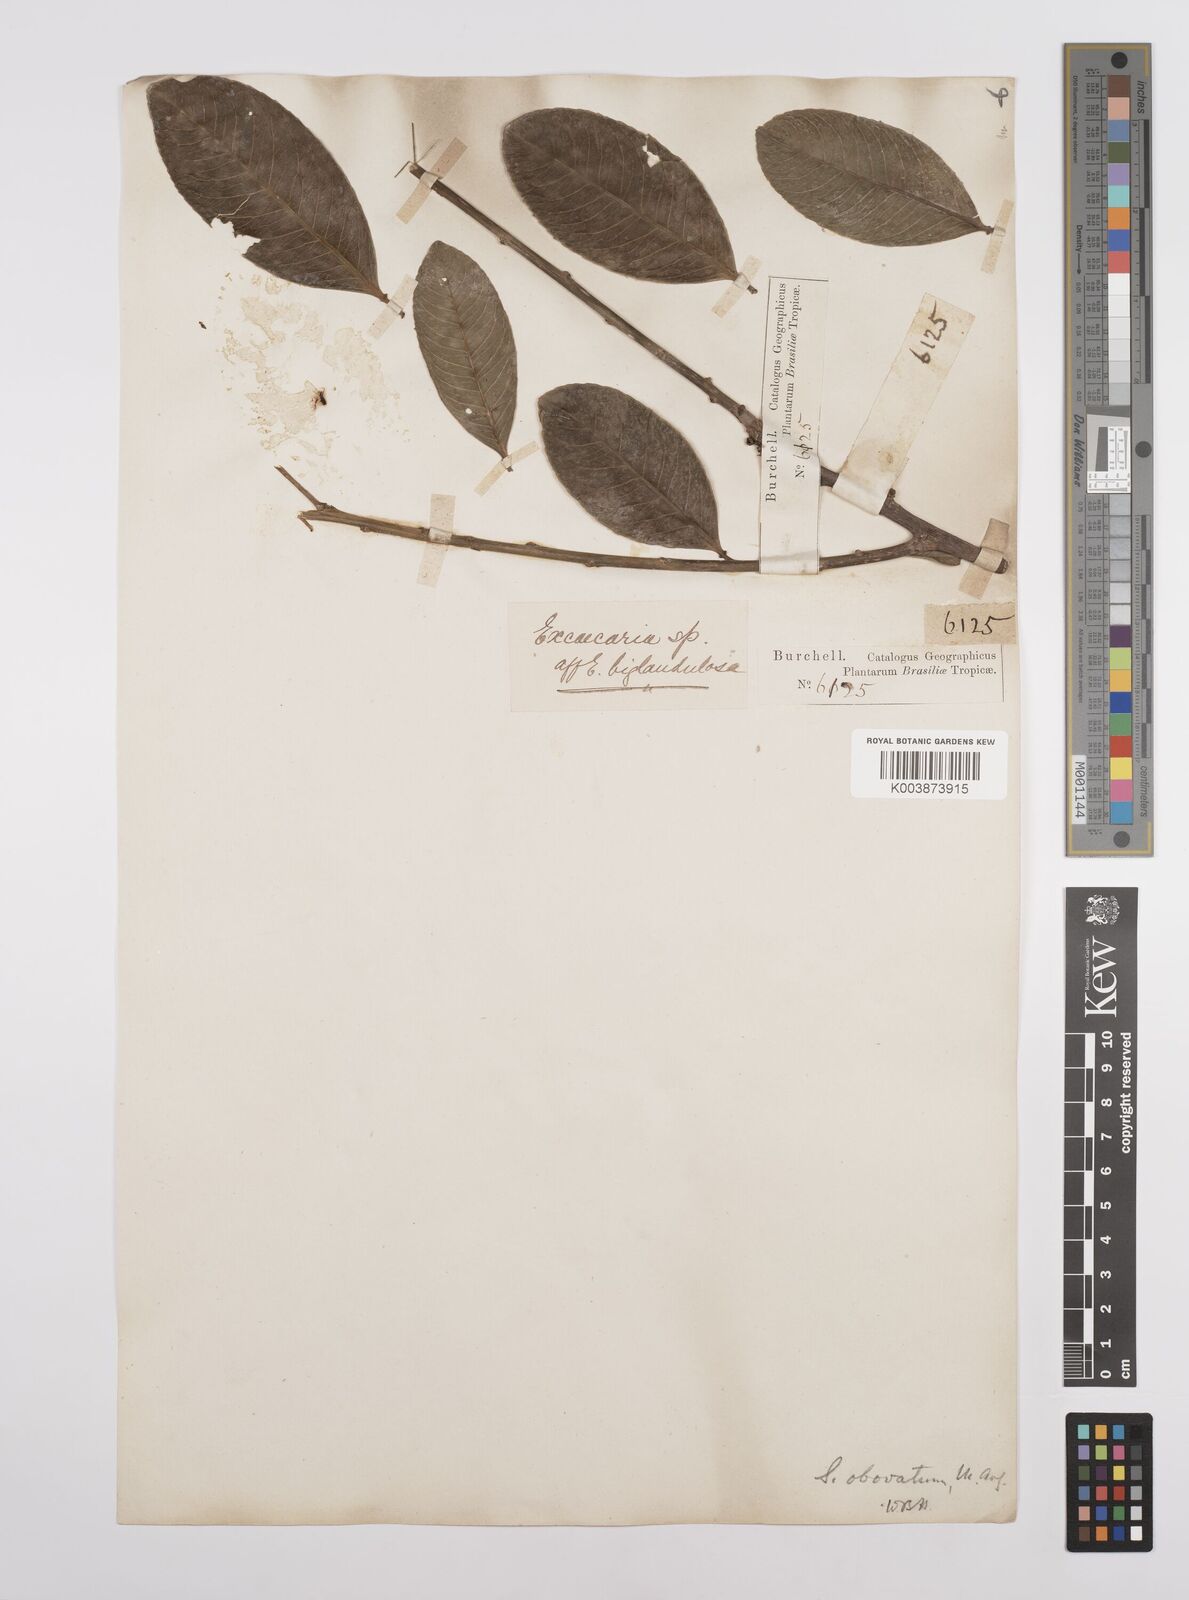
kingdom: Plantae
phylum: Tracheophyta
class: Magnoliopsida
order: Malpighiales
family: Euphorbiaceae
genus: Sapium
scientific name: Sapium obovatum
